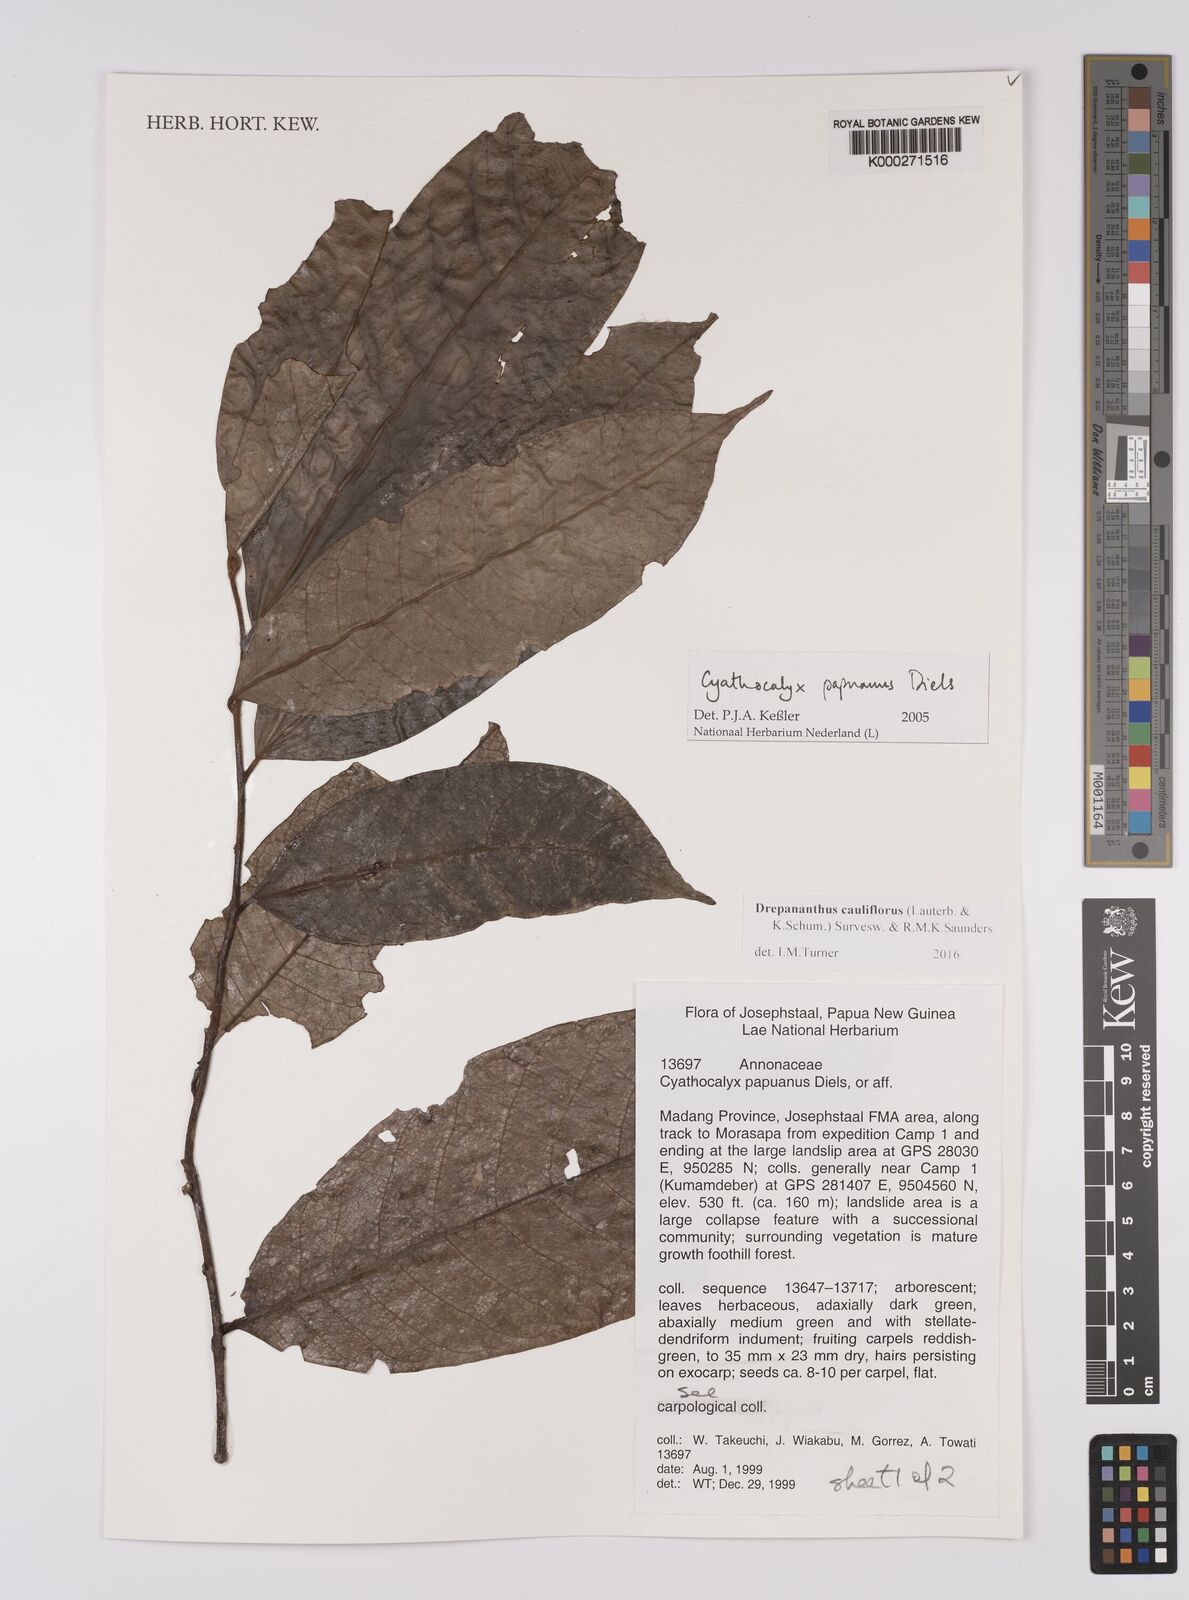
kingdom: Plantae
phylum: Tracheophyta
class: Magnoliopsida
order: Magnoliales
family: Annonaceae
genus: Drepananthus
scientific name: Drepananthus cauliflorus
